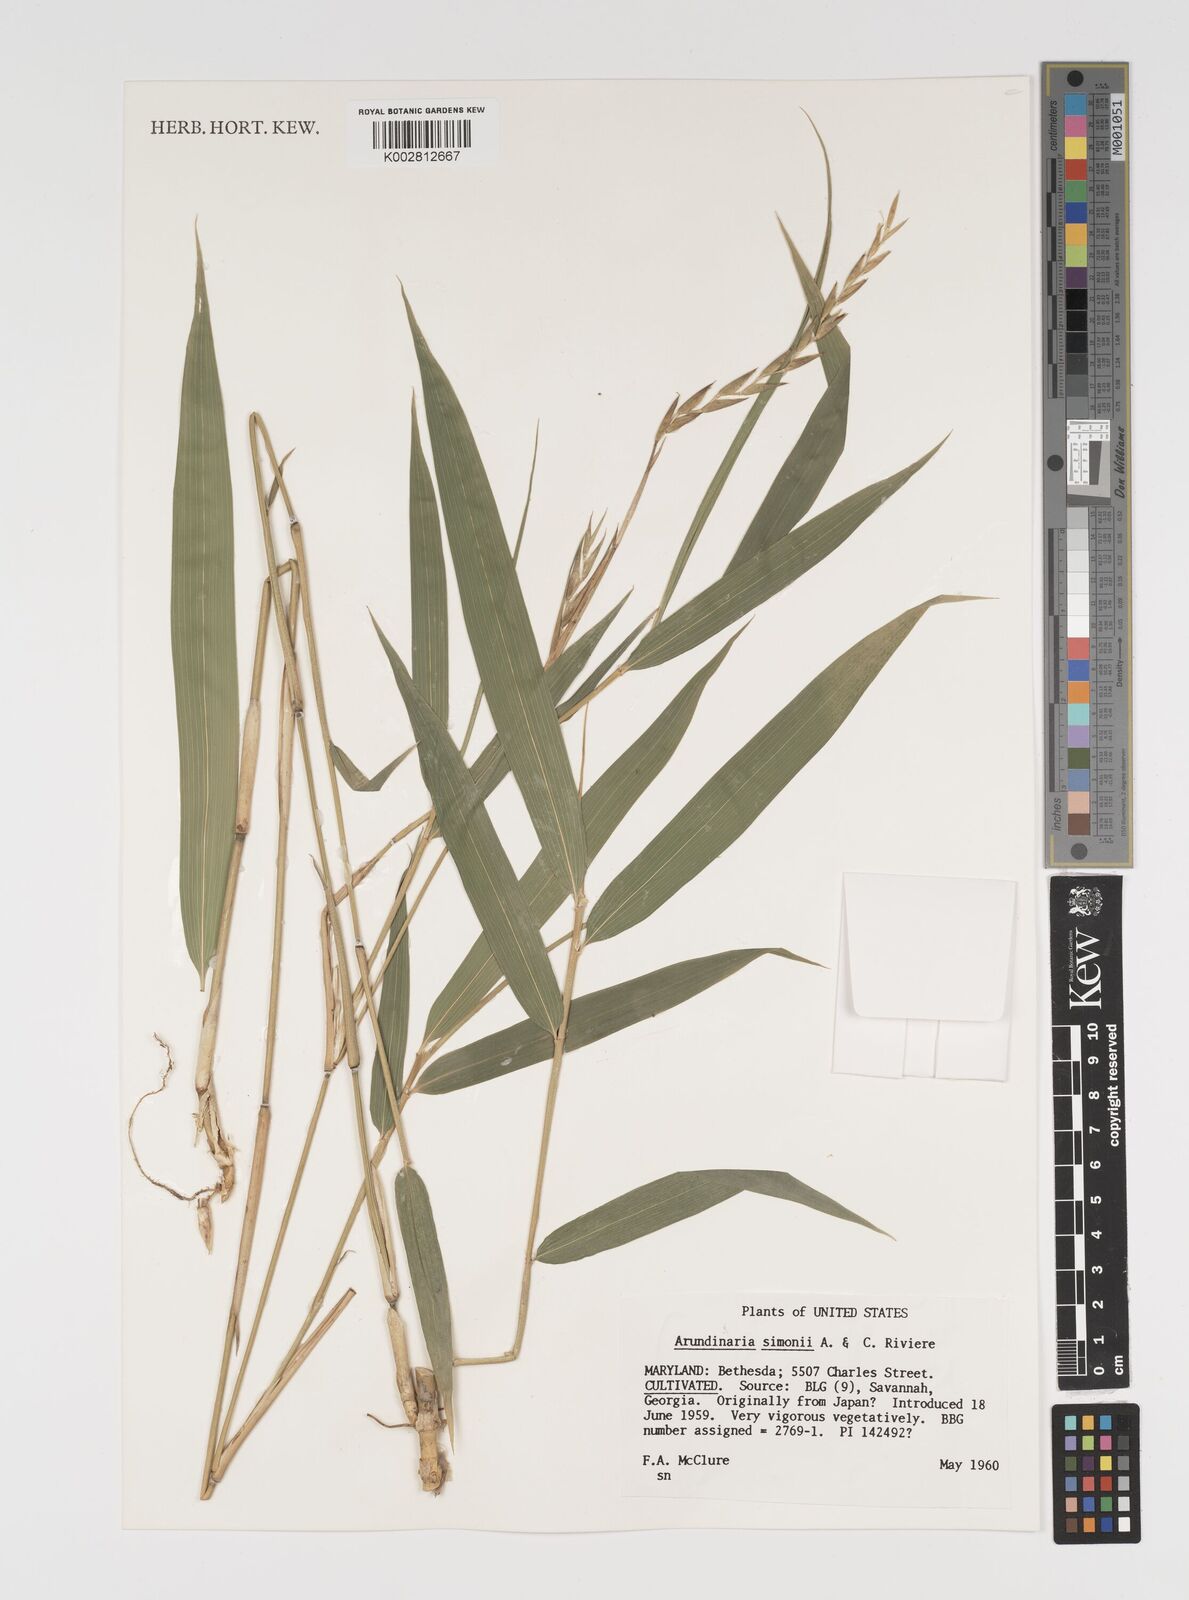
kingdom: Plantae
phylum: Tracheophyta
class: Liliopsida
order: Poales
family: Poaceae
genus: Pleioblastus
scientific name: Pleioblastus simonii
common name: Simon bamboo
